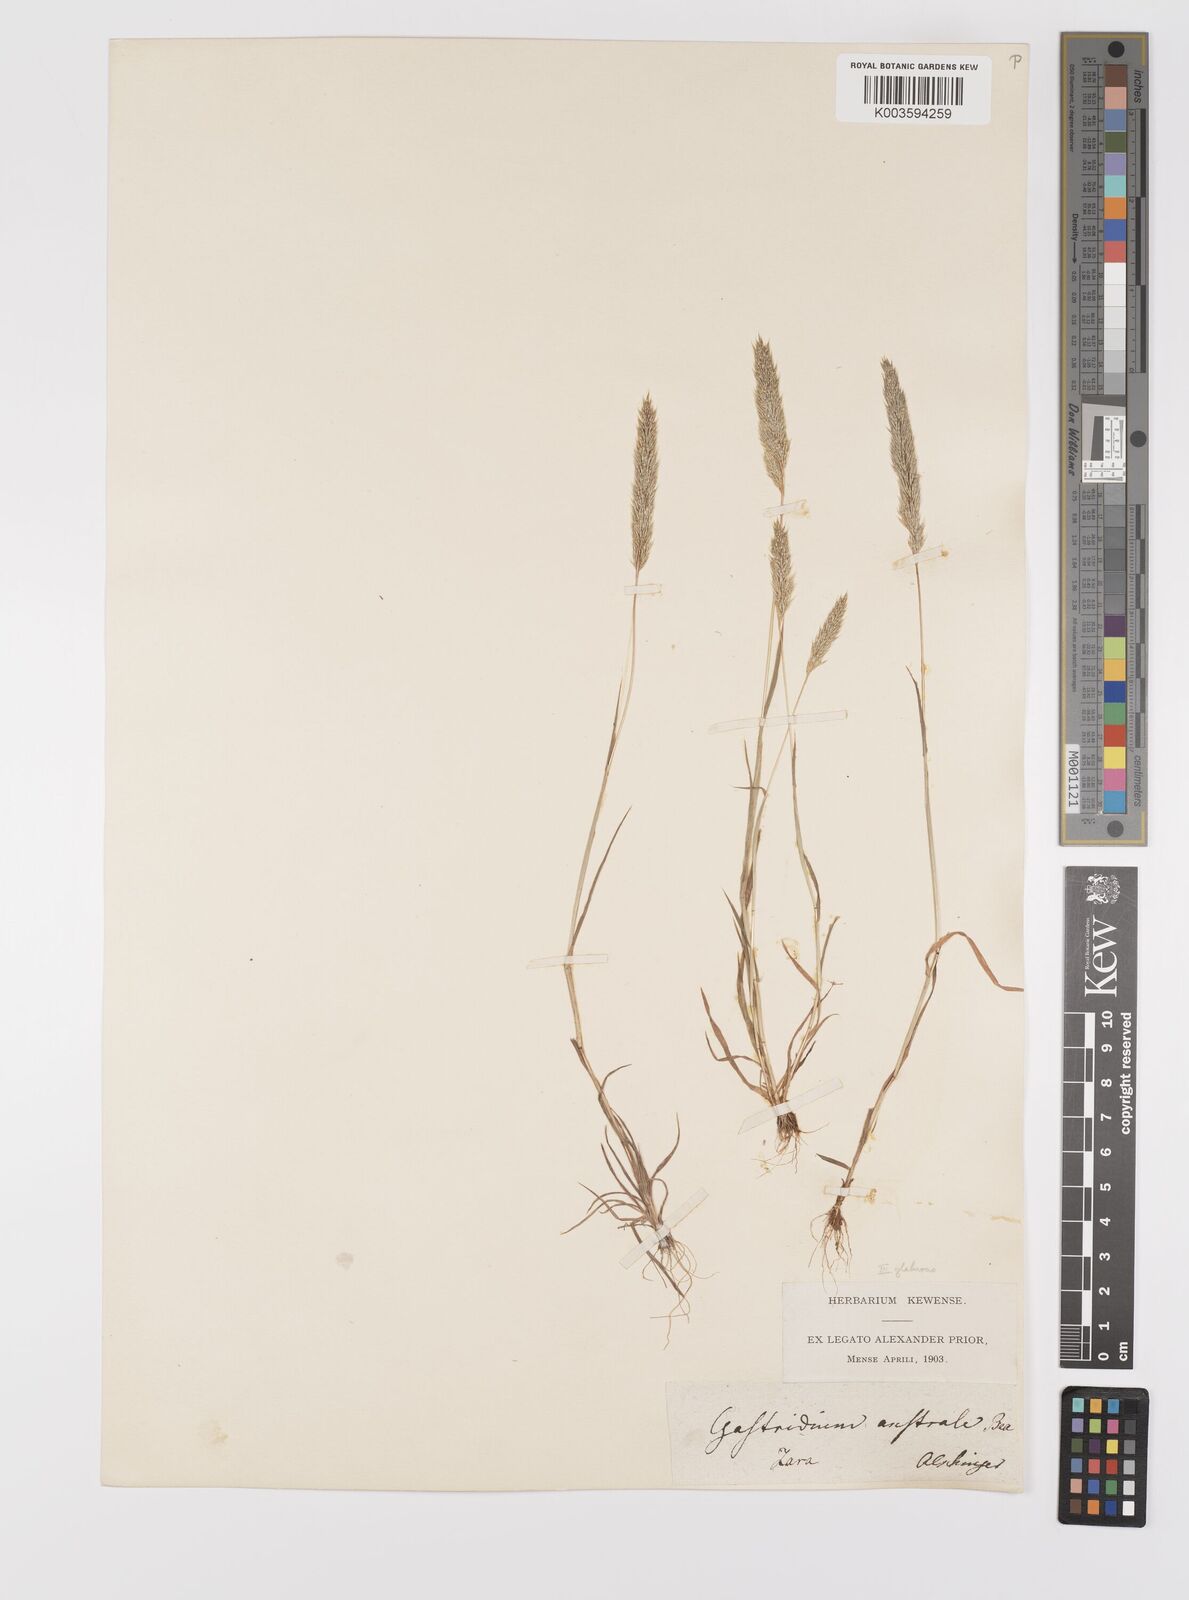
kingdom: Plantae
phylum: Tracheophyta
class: Liliopsida
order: Poales
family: Poaceae
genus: Gastridium
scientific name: Gastridium ventricosum
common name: Nit-grass
